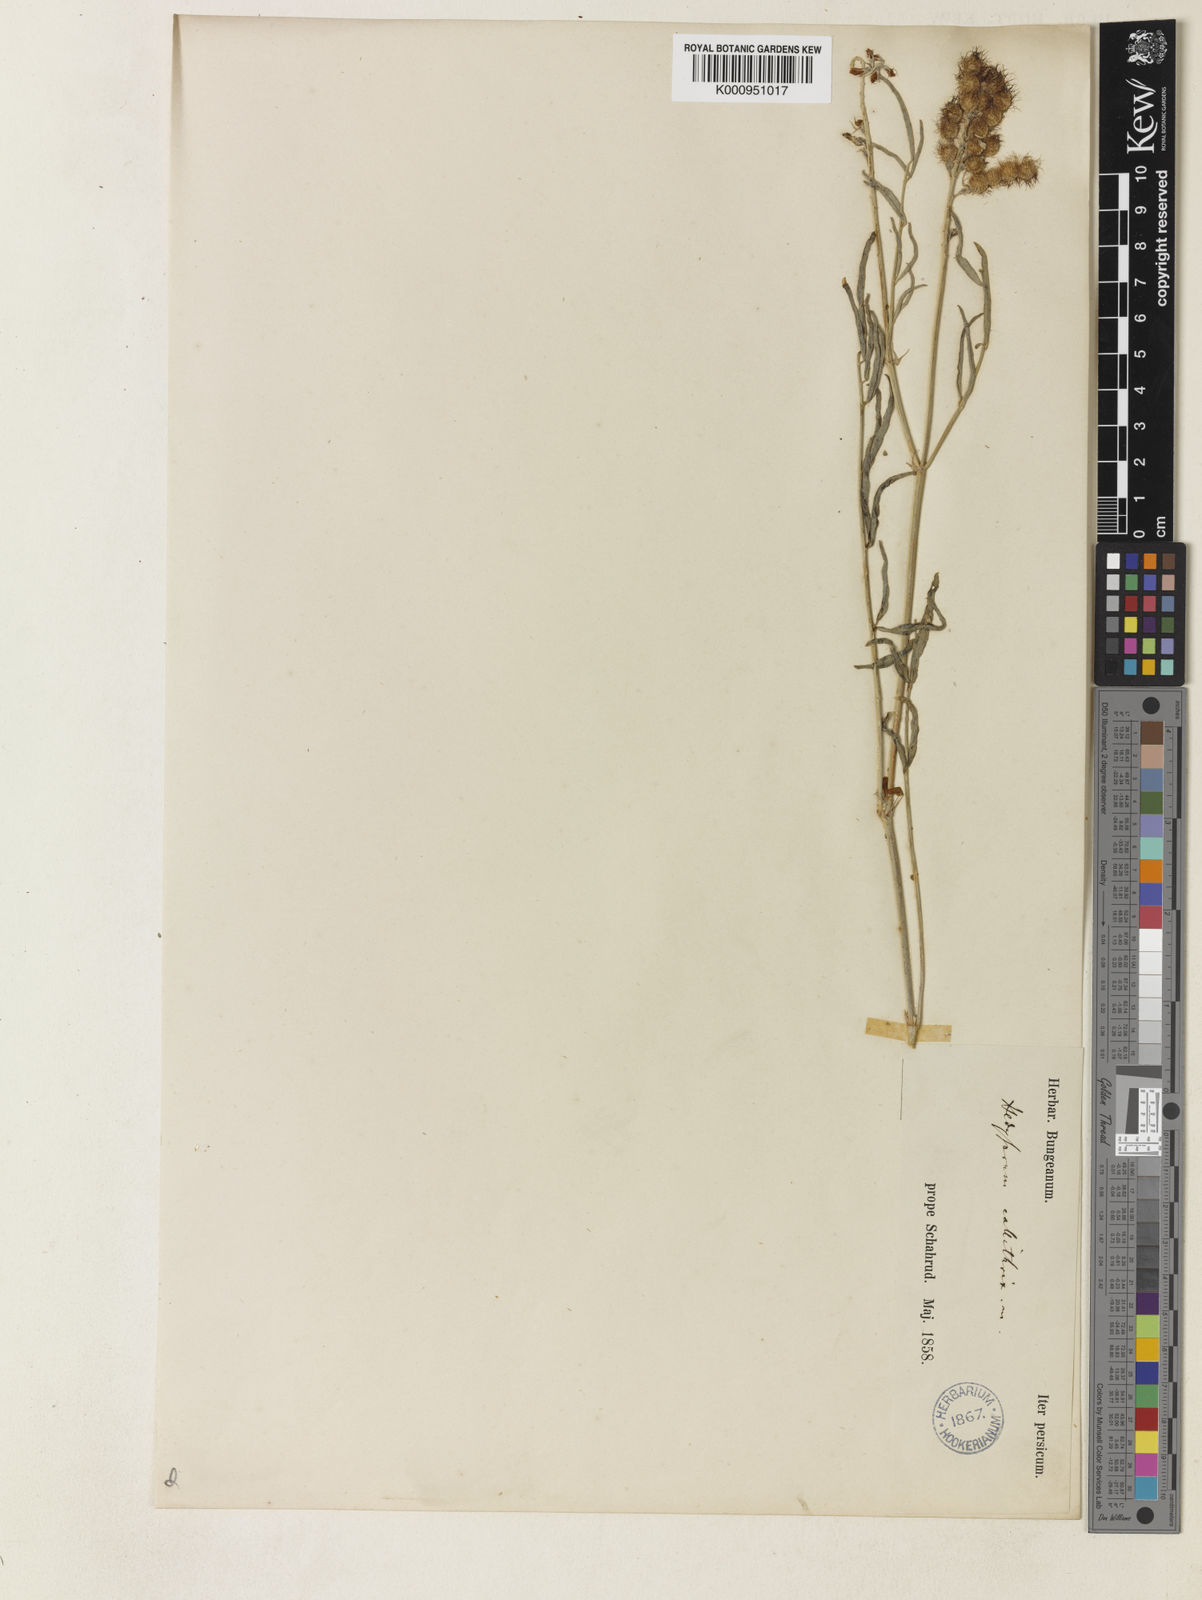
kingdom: Plantae
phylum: Tracheophyta
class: Magnoliopsida
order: Fabales
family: Fabaceae
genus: Hedysarum
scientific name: Hedysarum callithrix
